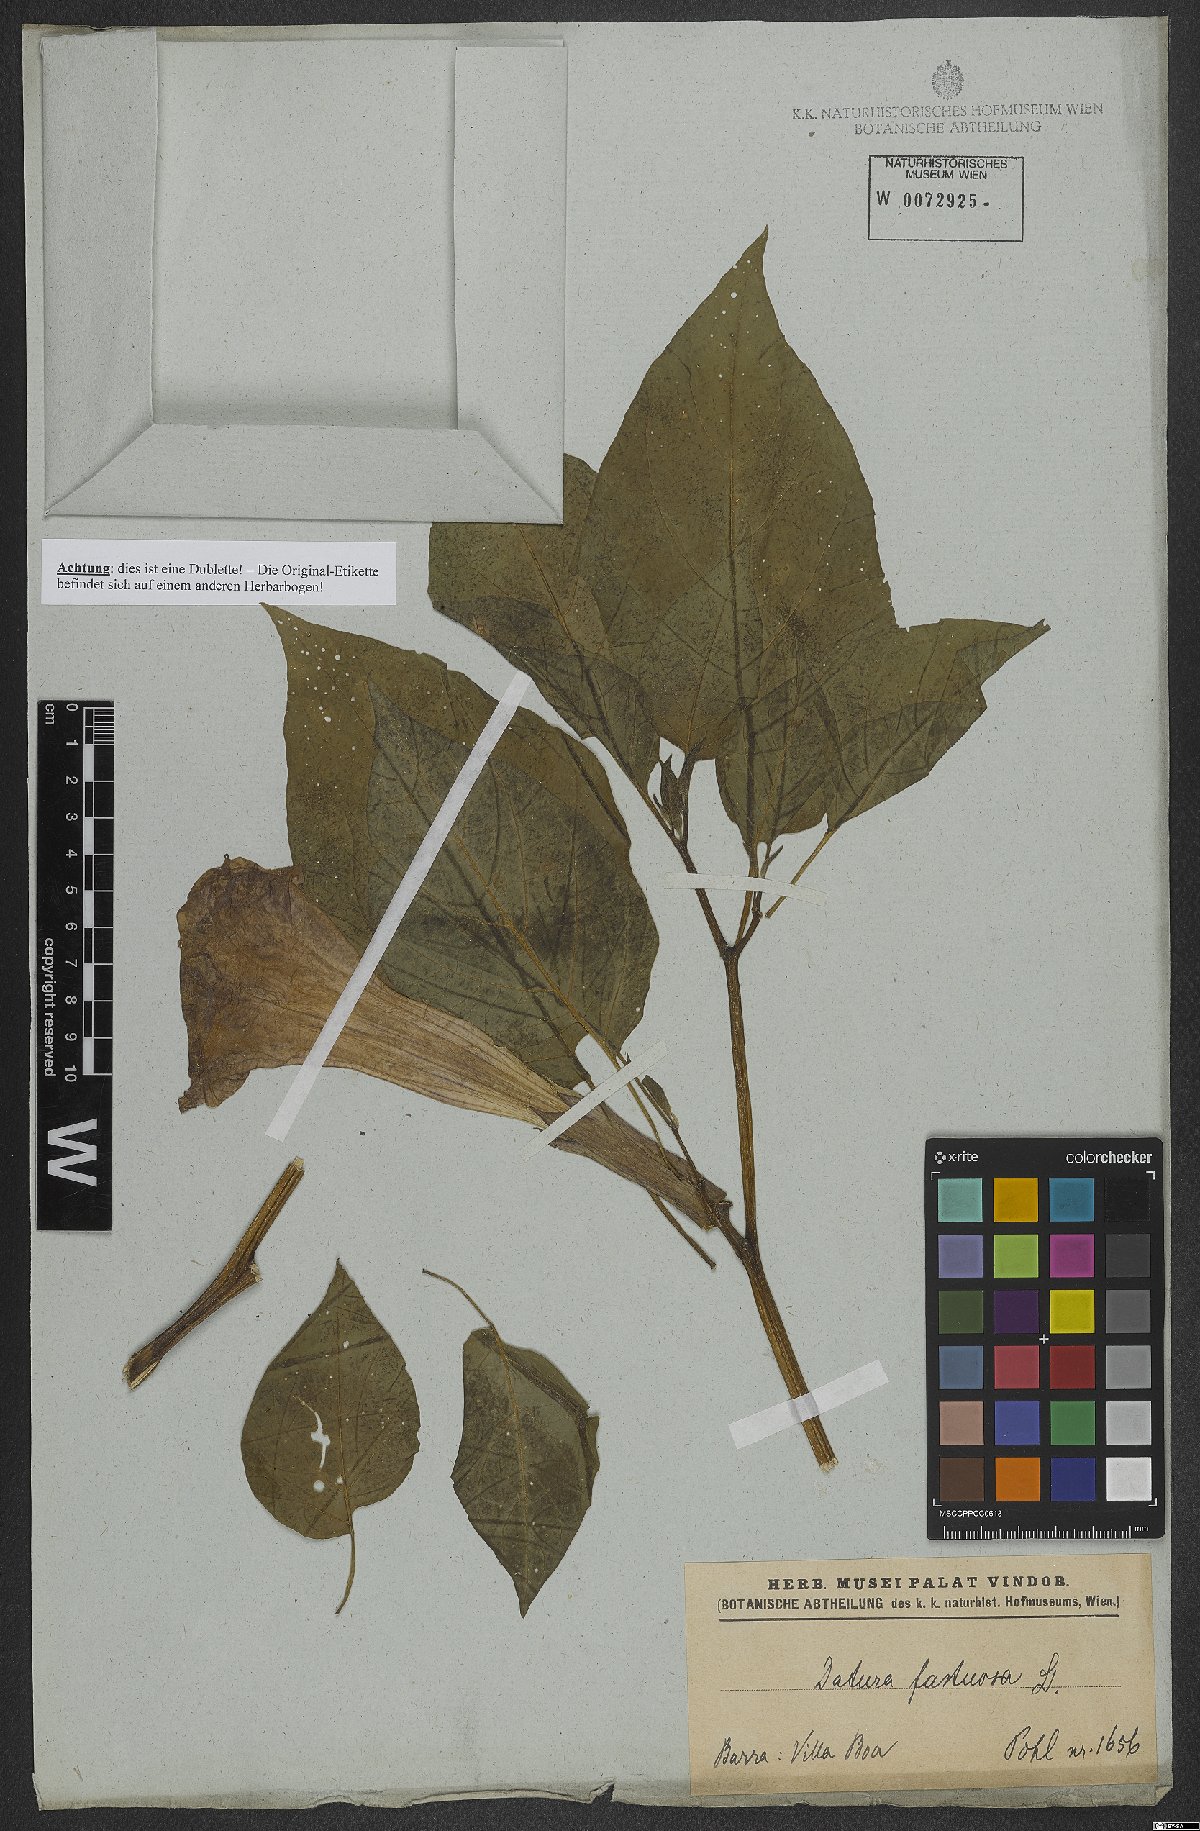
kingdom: Plantae
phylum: Tracheophyta
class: Magnoliopsida
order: Solanales
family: Solanaceae
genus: Datura
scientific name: Datura metel
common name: Jimsonweed
